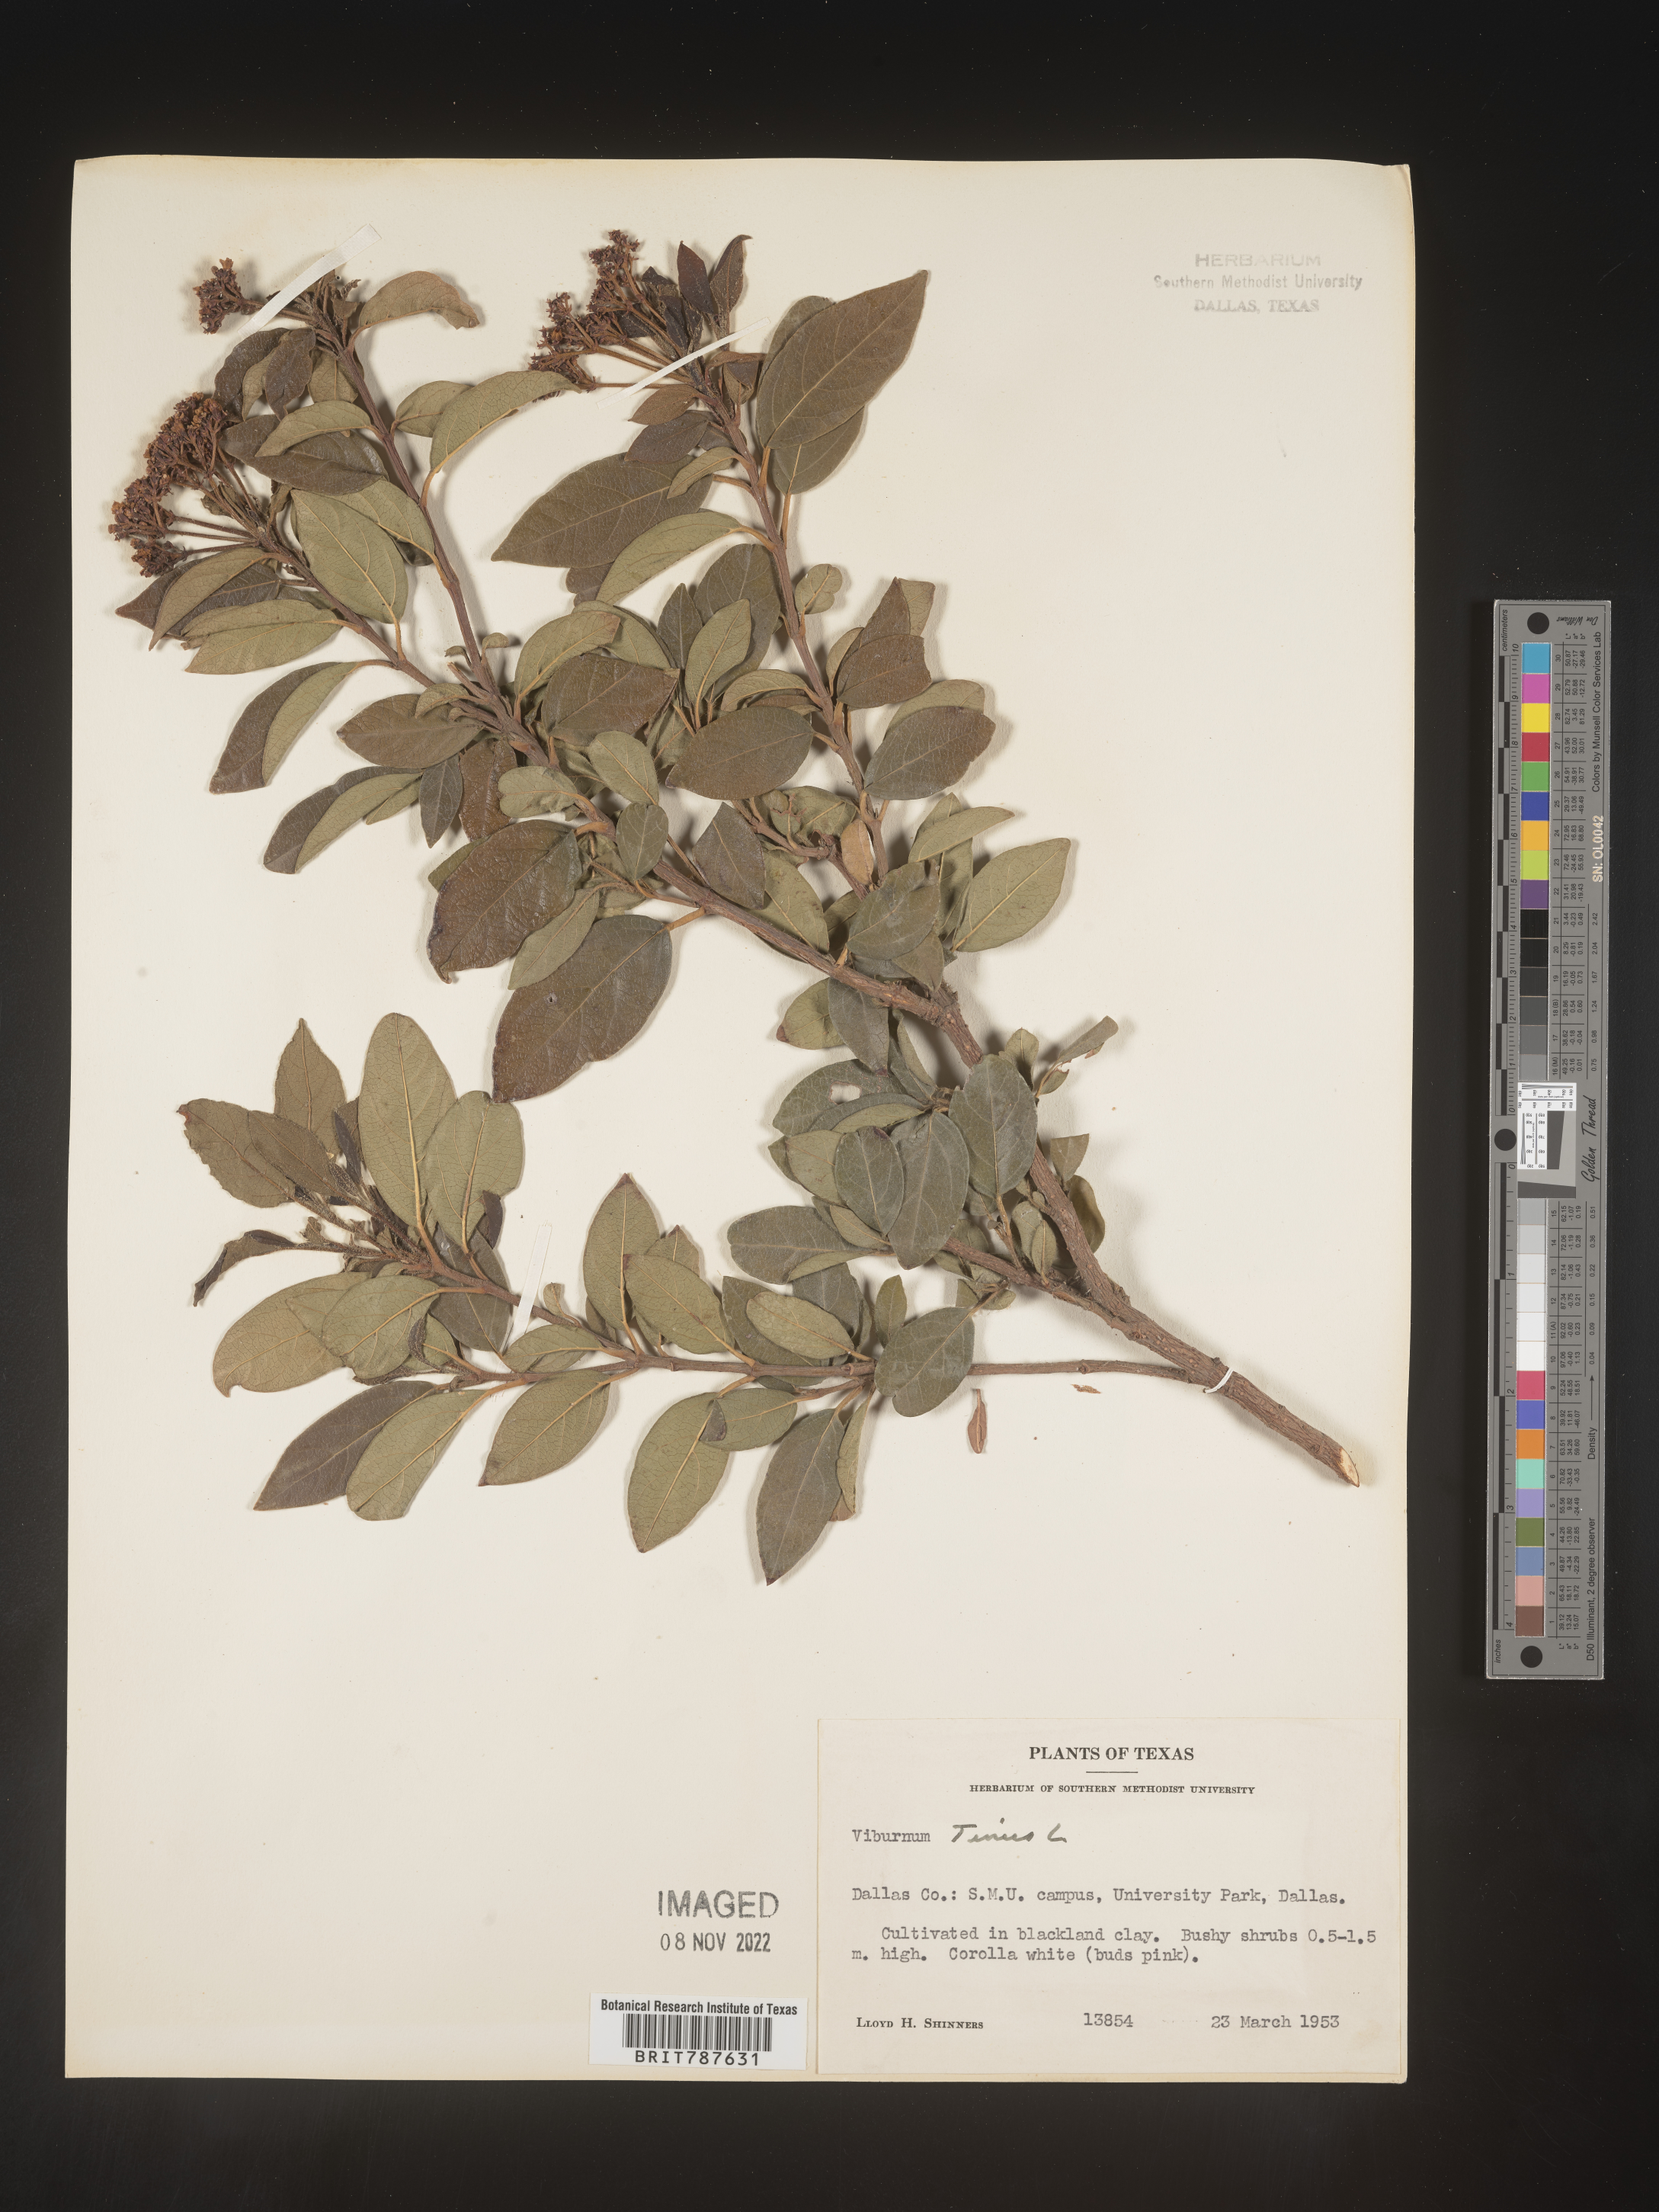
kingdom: Plantae
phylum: Tracheophyta
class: Magnoliopsida
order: Dipsacales
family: Viburnaceae
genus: Viburnum
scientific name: Viburnum
